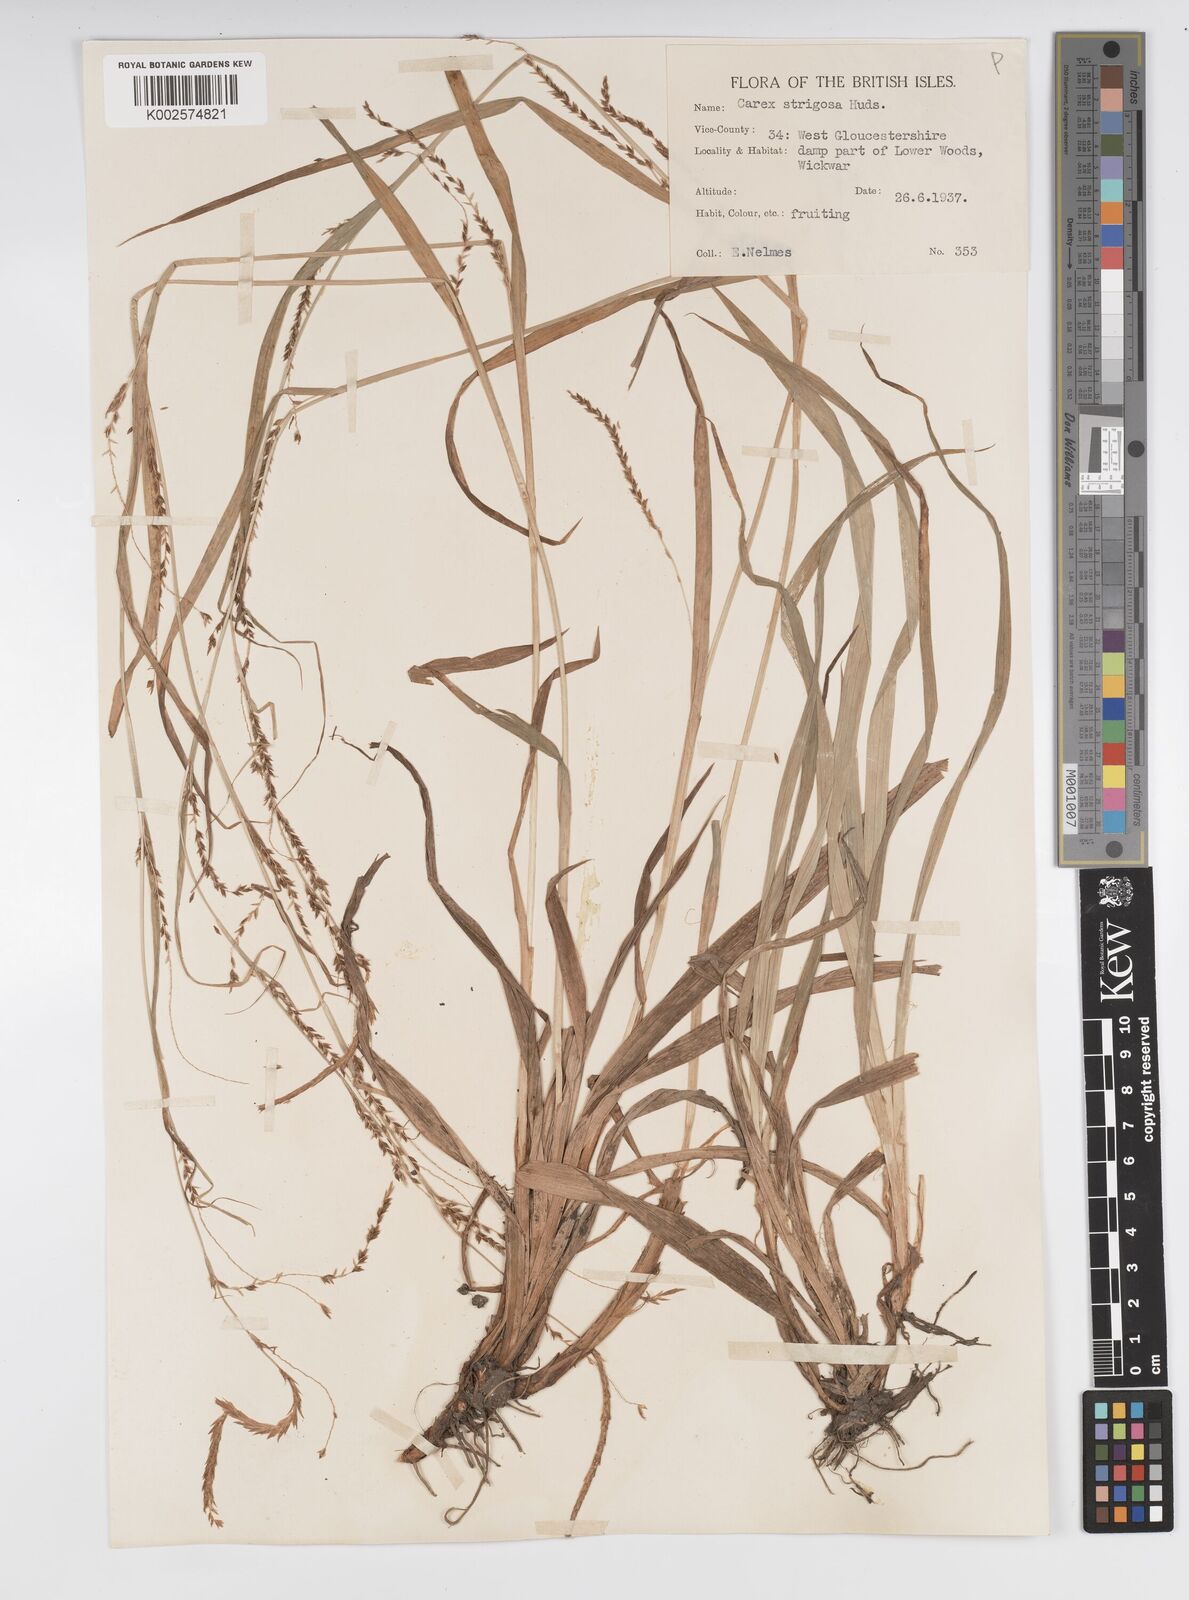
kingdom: Plantae
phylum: Tracheophyta
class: Liliopsida
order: Poales
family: Cyperaceae
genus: Carex
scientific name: Carex strigosa
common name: Thin-spiked wood-sedge
